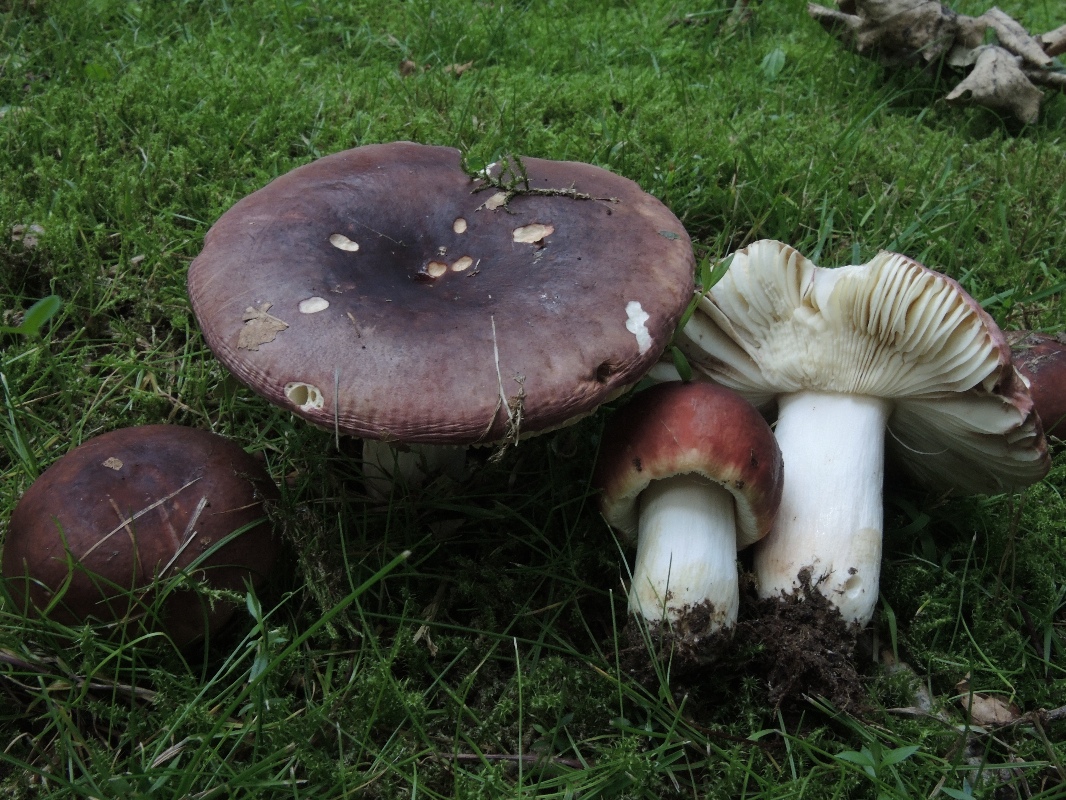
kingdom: Fungi
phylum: Basidiomycota
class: Agaricomycetes
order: Russulales
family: Russulaceae
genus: Russula
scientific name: Russula graveolens
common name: bugtet skørhat
